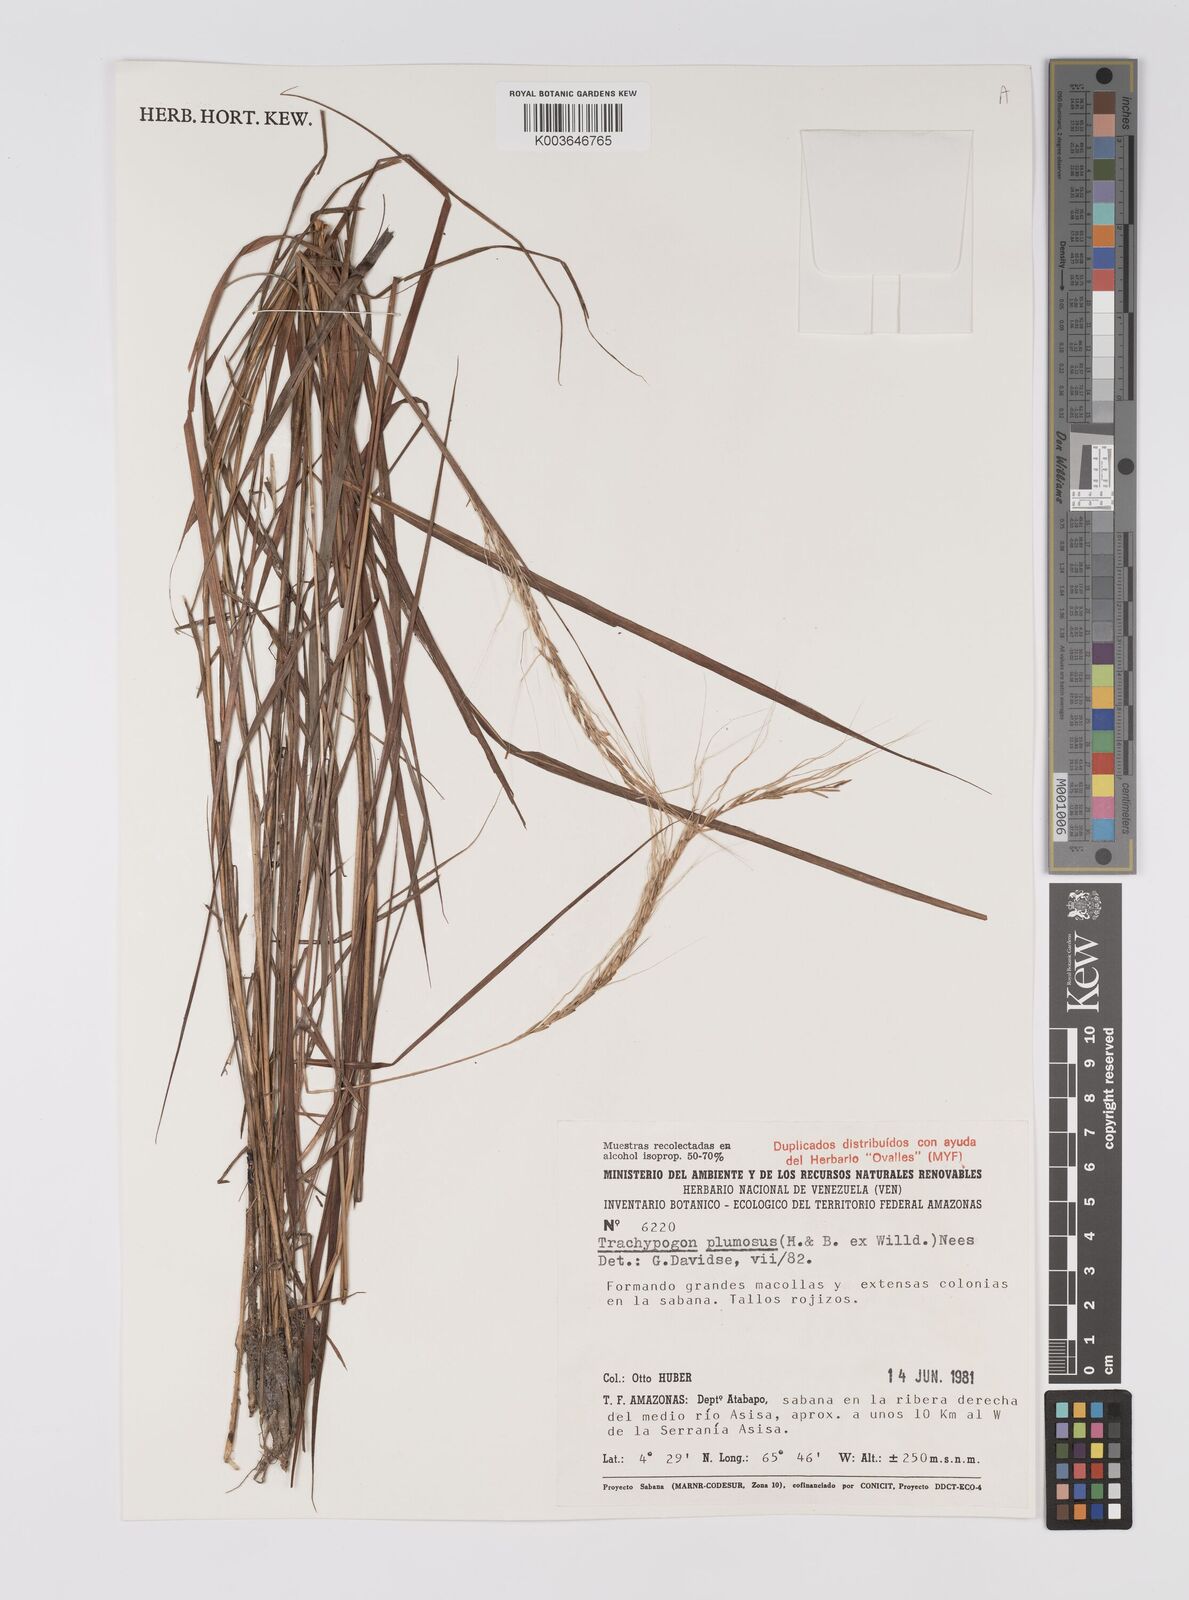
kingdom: Plantae
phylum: Tracheophyta
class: Liliopsida
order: Poales
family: Poaceae
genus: Trachypogon
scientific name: Trachypogon spicatus
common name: Crinkle-awn
